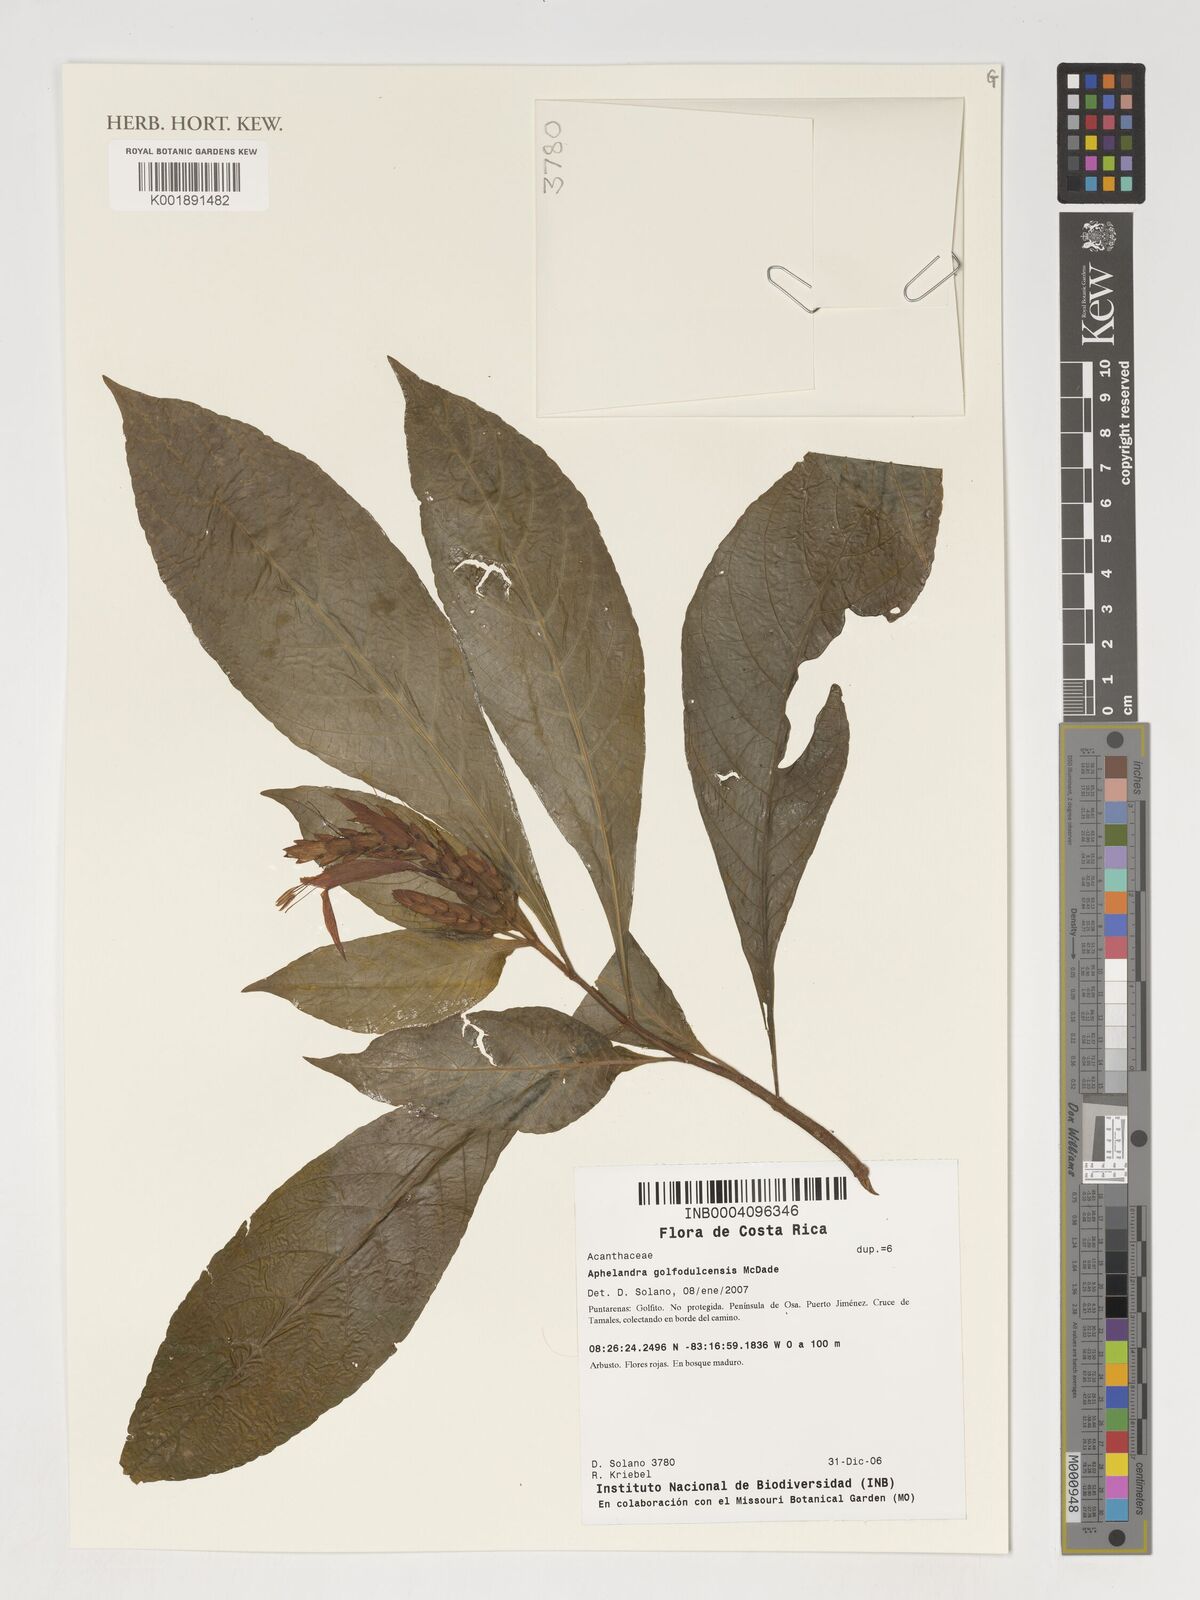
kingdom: Plantae
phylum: Tracheophyta
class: Magnoliopsida
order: Lamiales
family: Acanthaceae
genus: Aphelandra
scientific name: Aphelandra golfodulcensis
